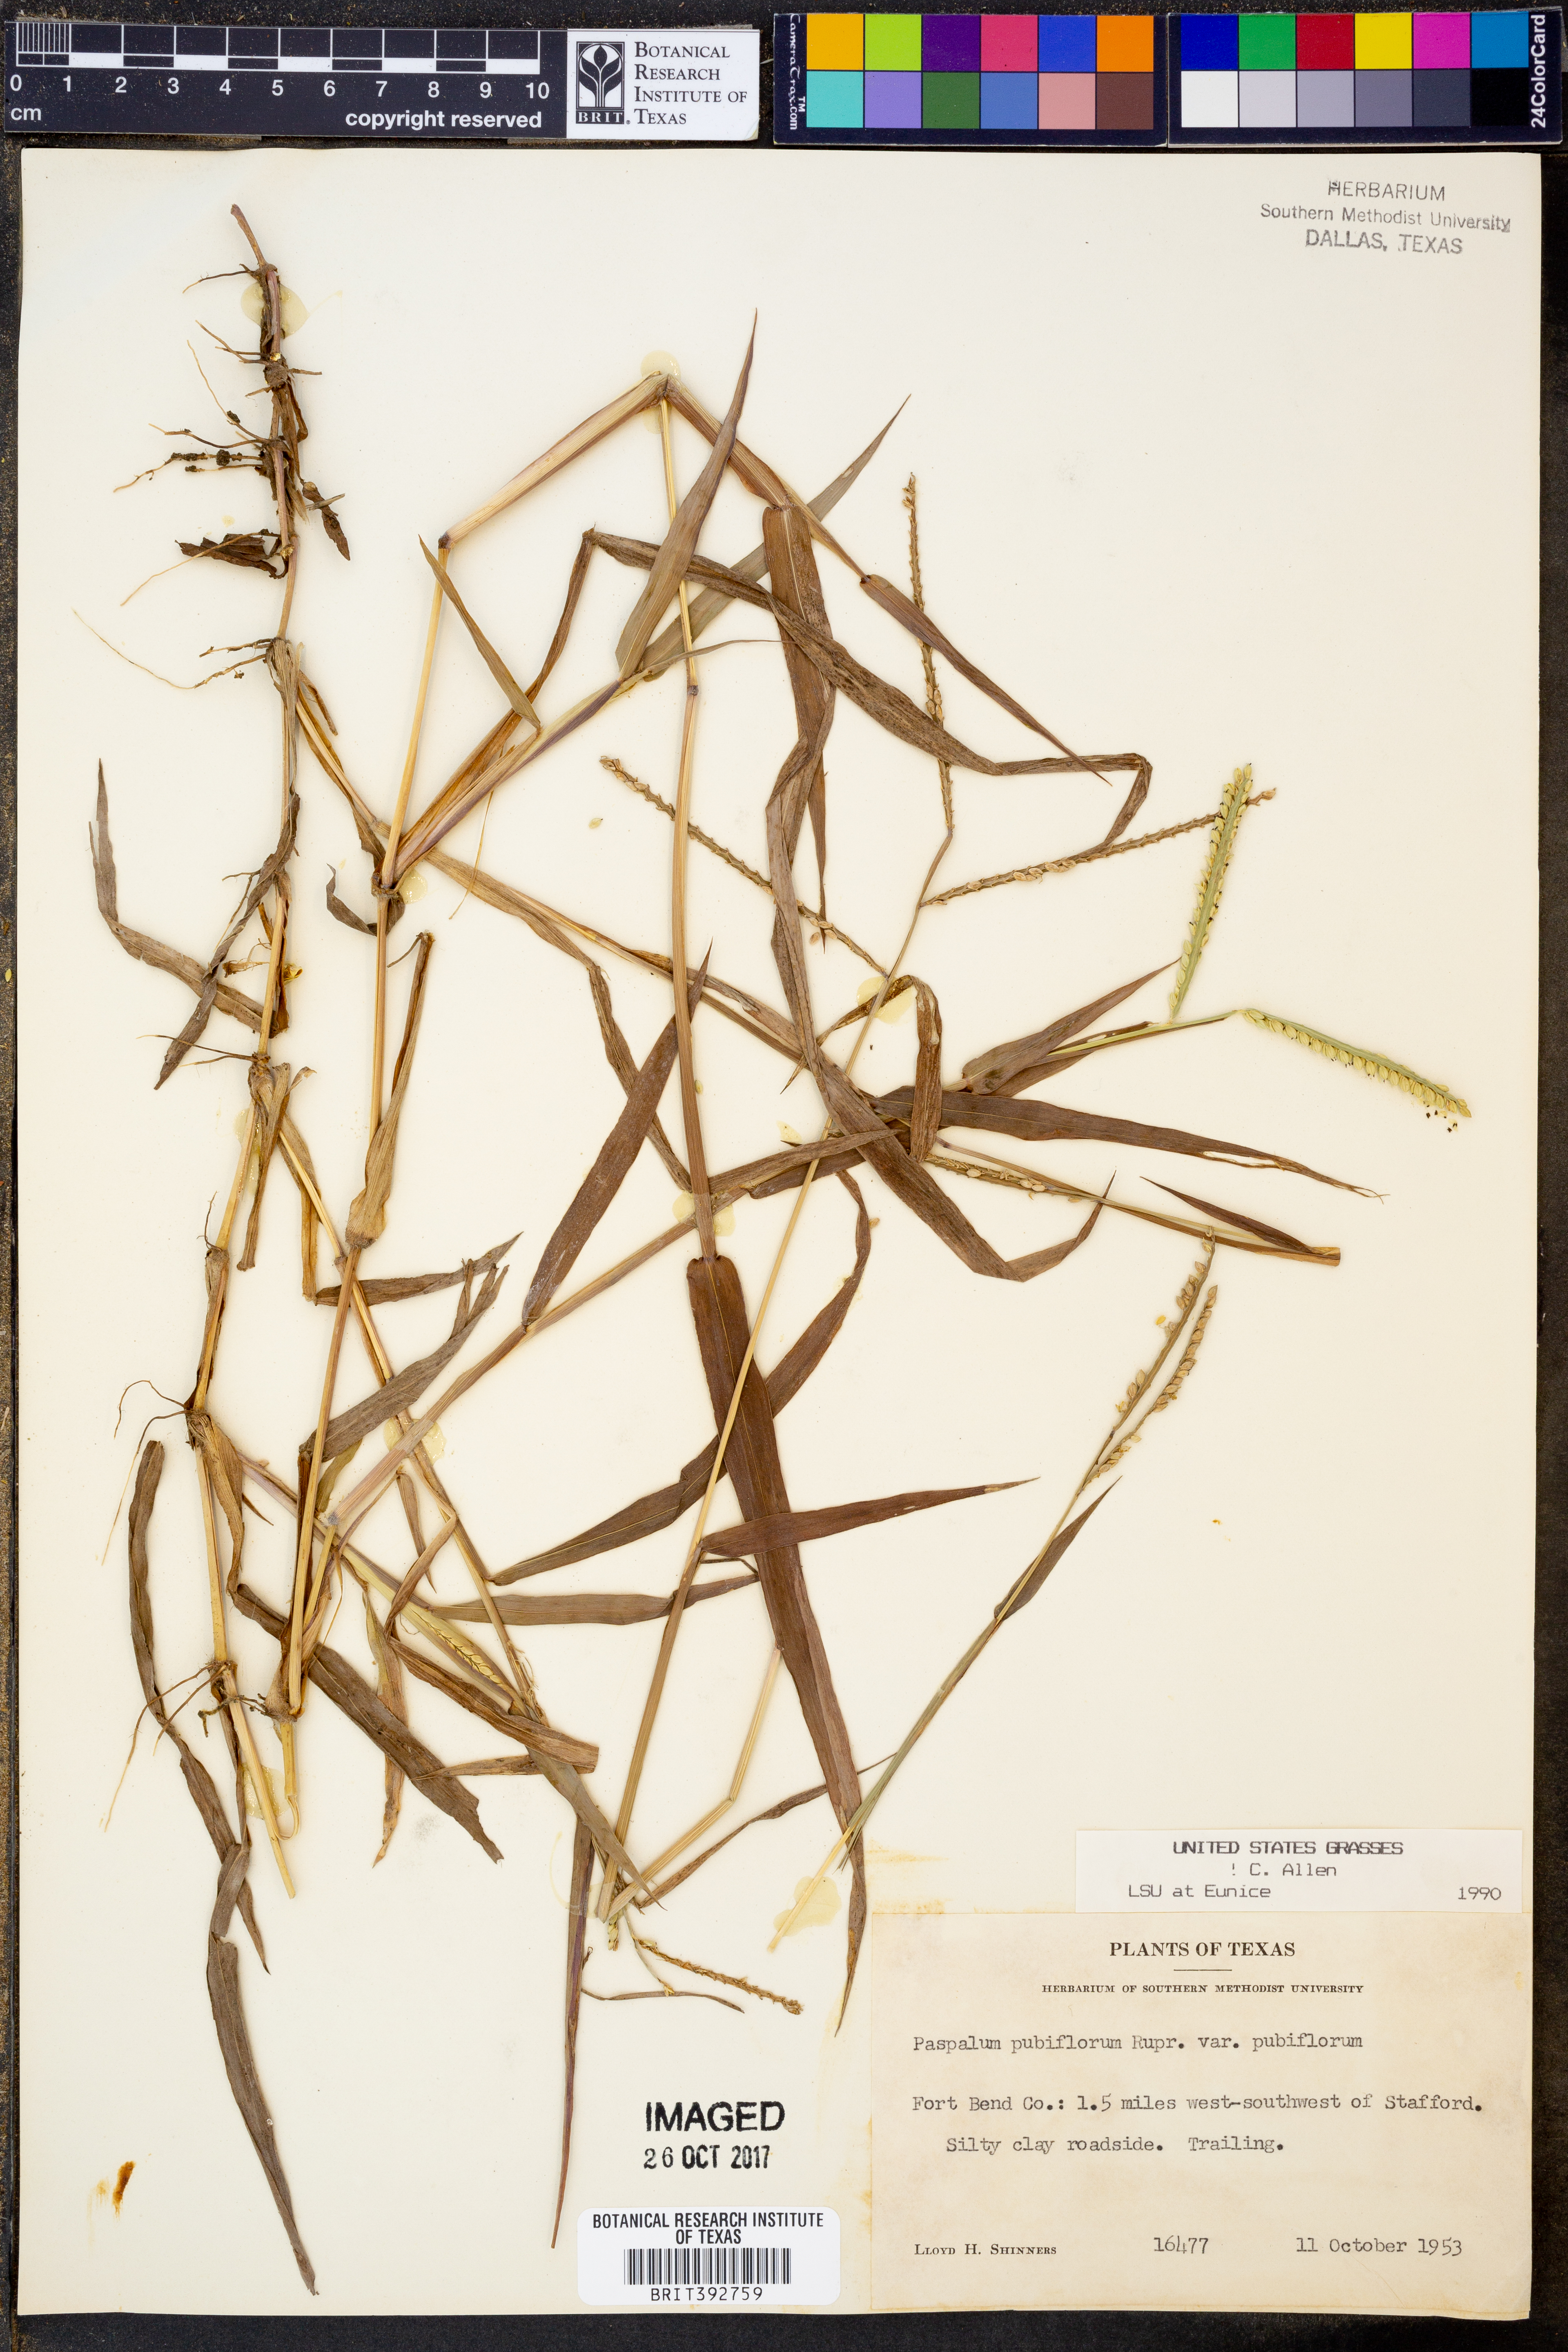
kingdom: Plantae
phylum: Tracheophyta
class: Liliopsida
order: Poales
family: Poaceae
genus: Paspalum
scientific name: Paspalum pubiflorum
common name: Hairy-seed paspalum
